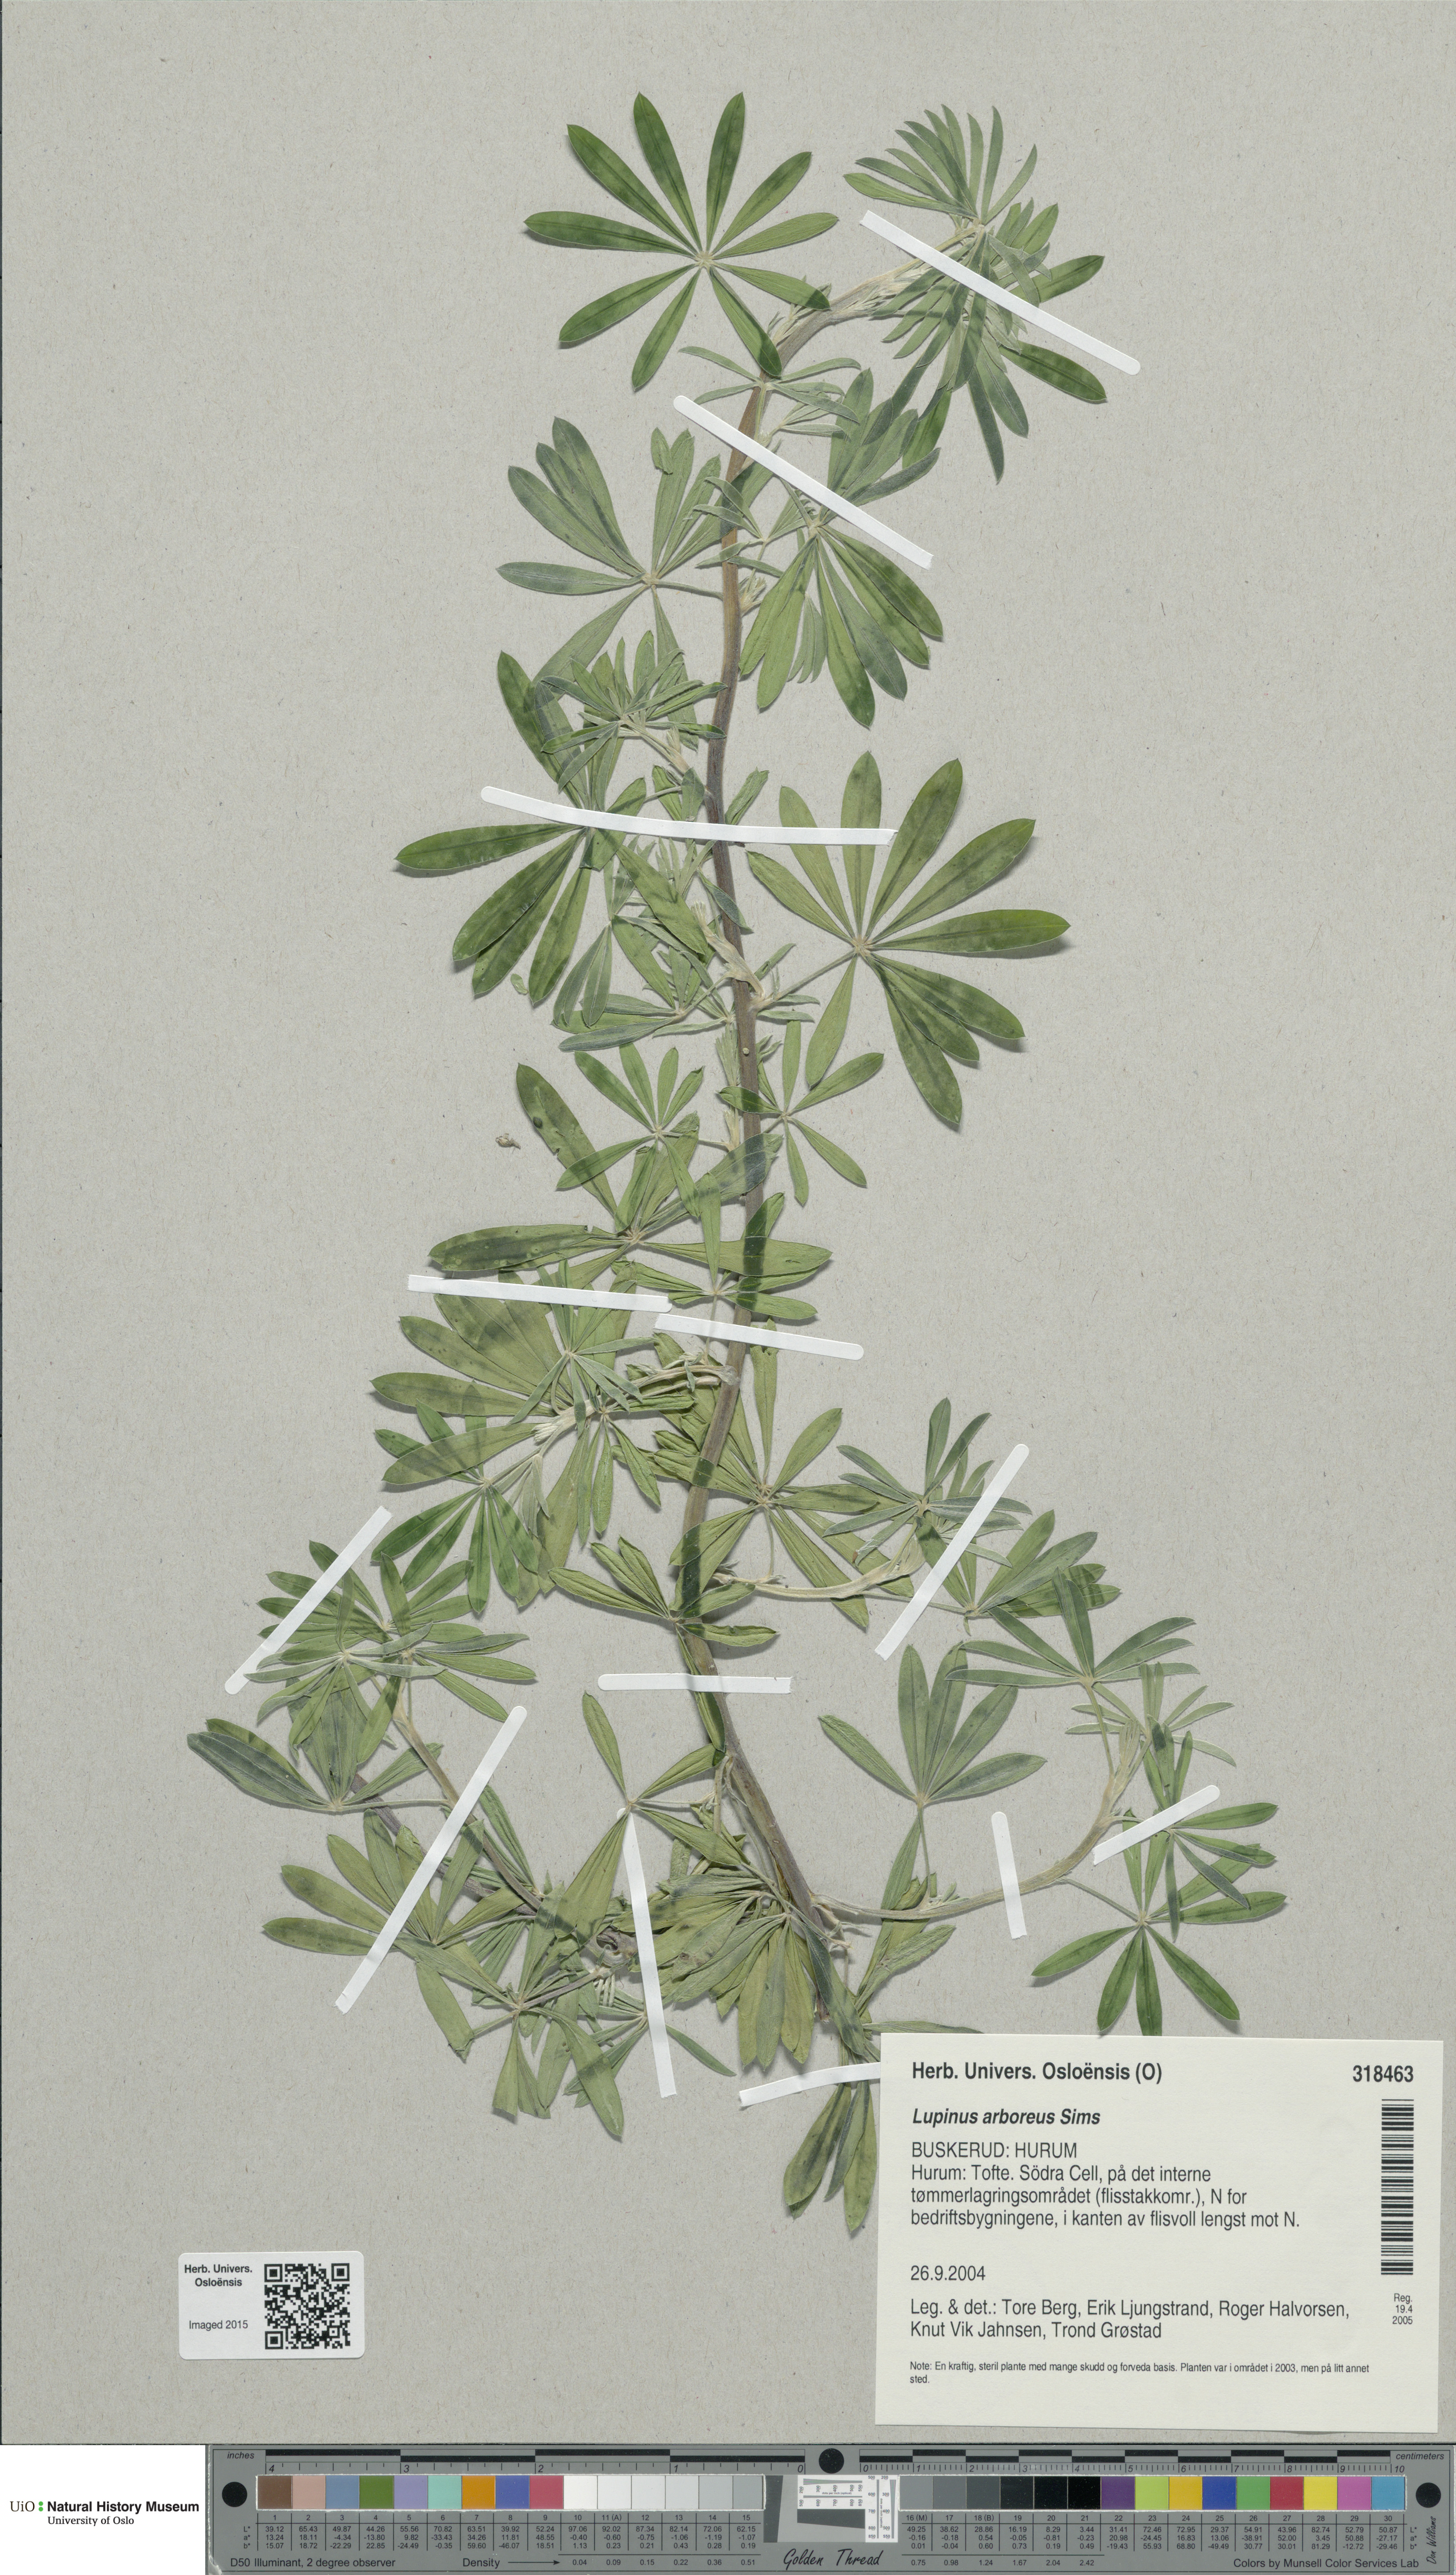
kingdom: Plantae
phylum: Tracheophyta
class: Magnoliopsida
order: Fabales
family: Fabaceae
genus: Lupinus
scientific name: Lupinus arboreus
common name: Yellow bush lupine
